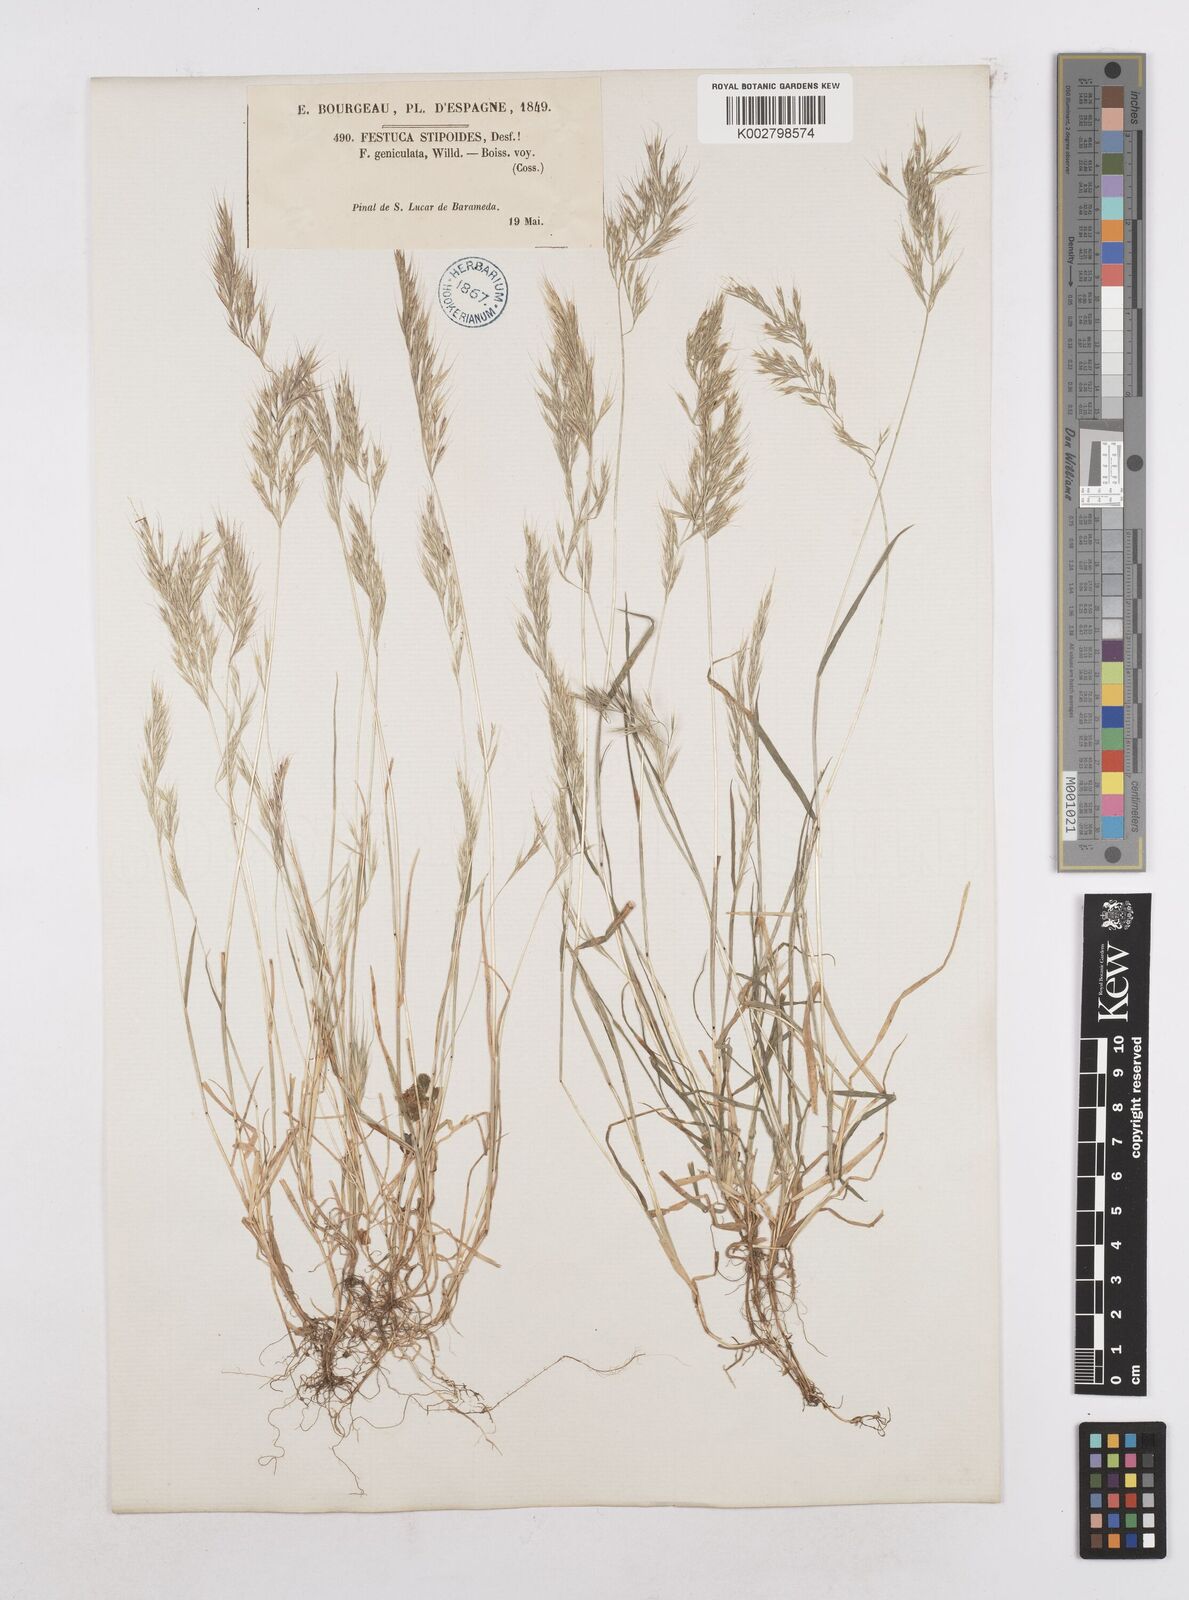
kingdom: Plantae
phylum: Tracheophyta
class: Liliopsida
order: Poales
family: Poaceae
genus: Festuca
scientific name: Festuca geniculata
